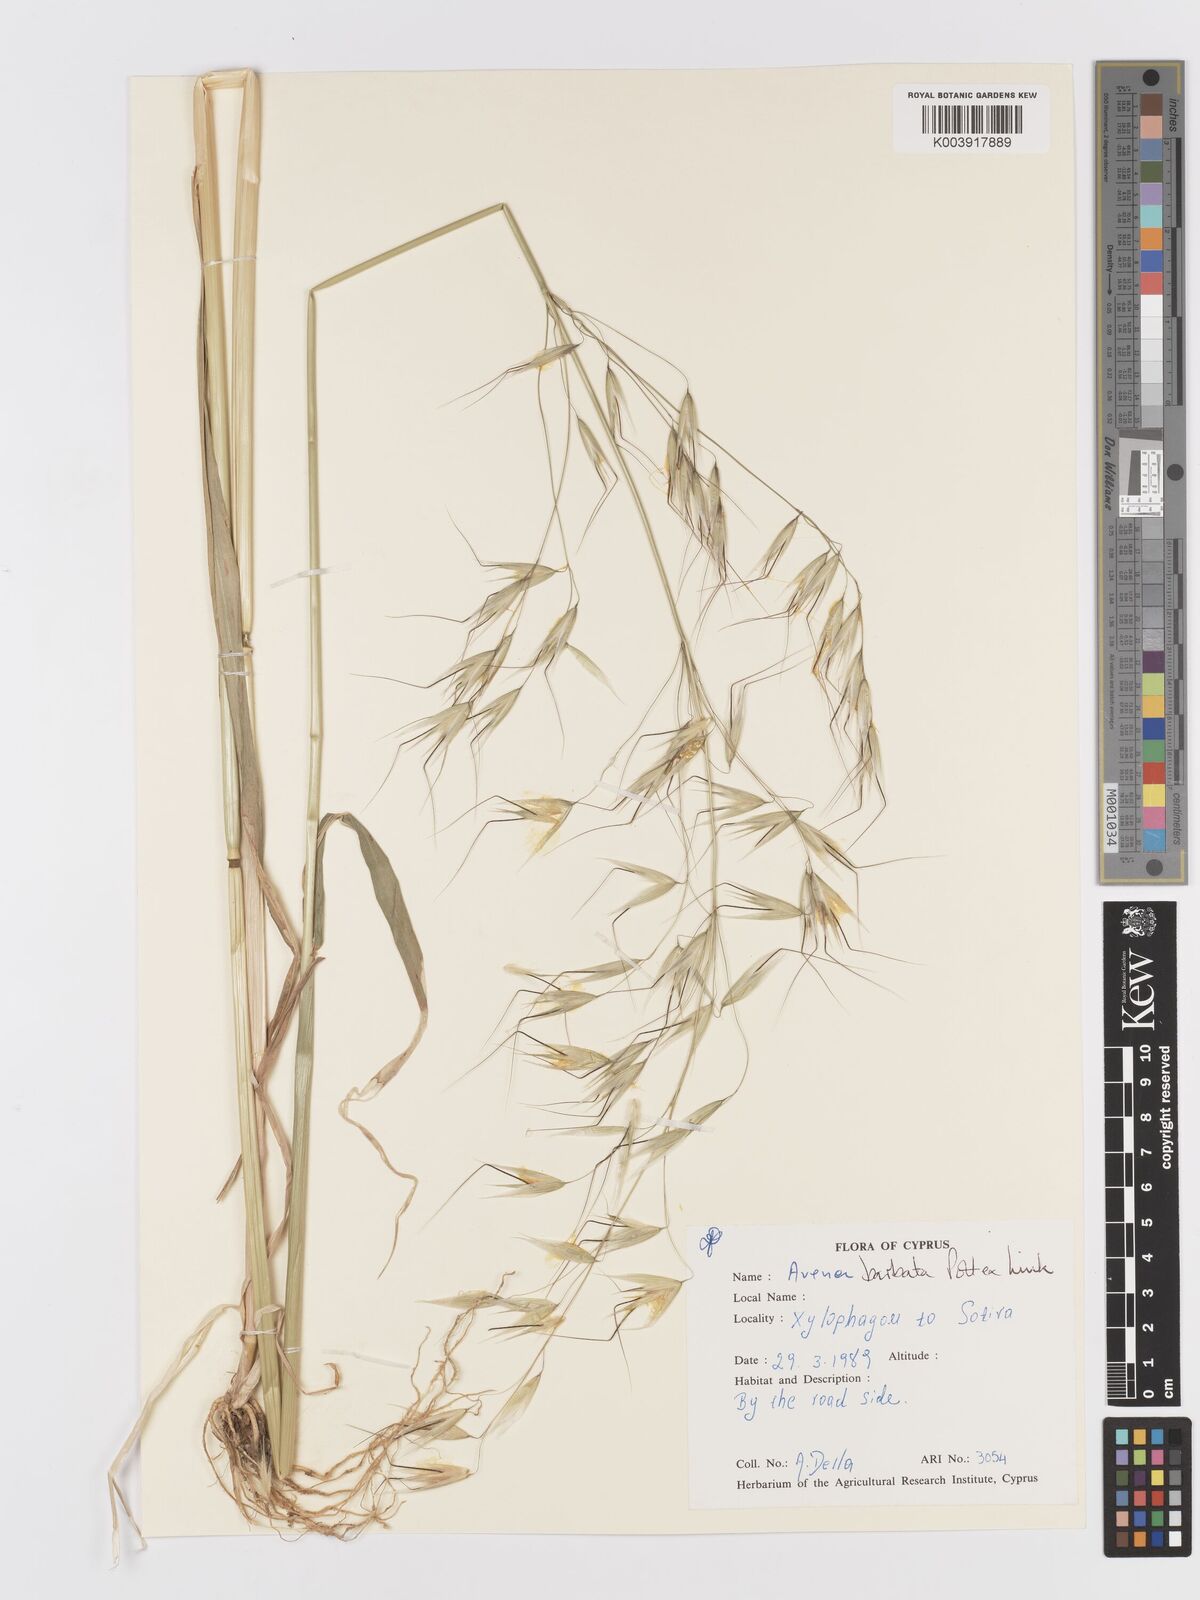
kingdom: Plantae
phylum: Tracheophyta
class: Liliopsida
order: Poales
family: Poaceae
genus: Avena
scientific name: Avena
